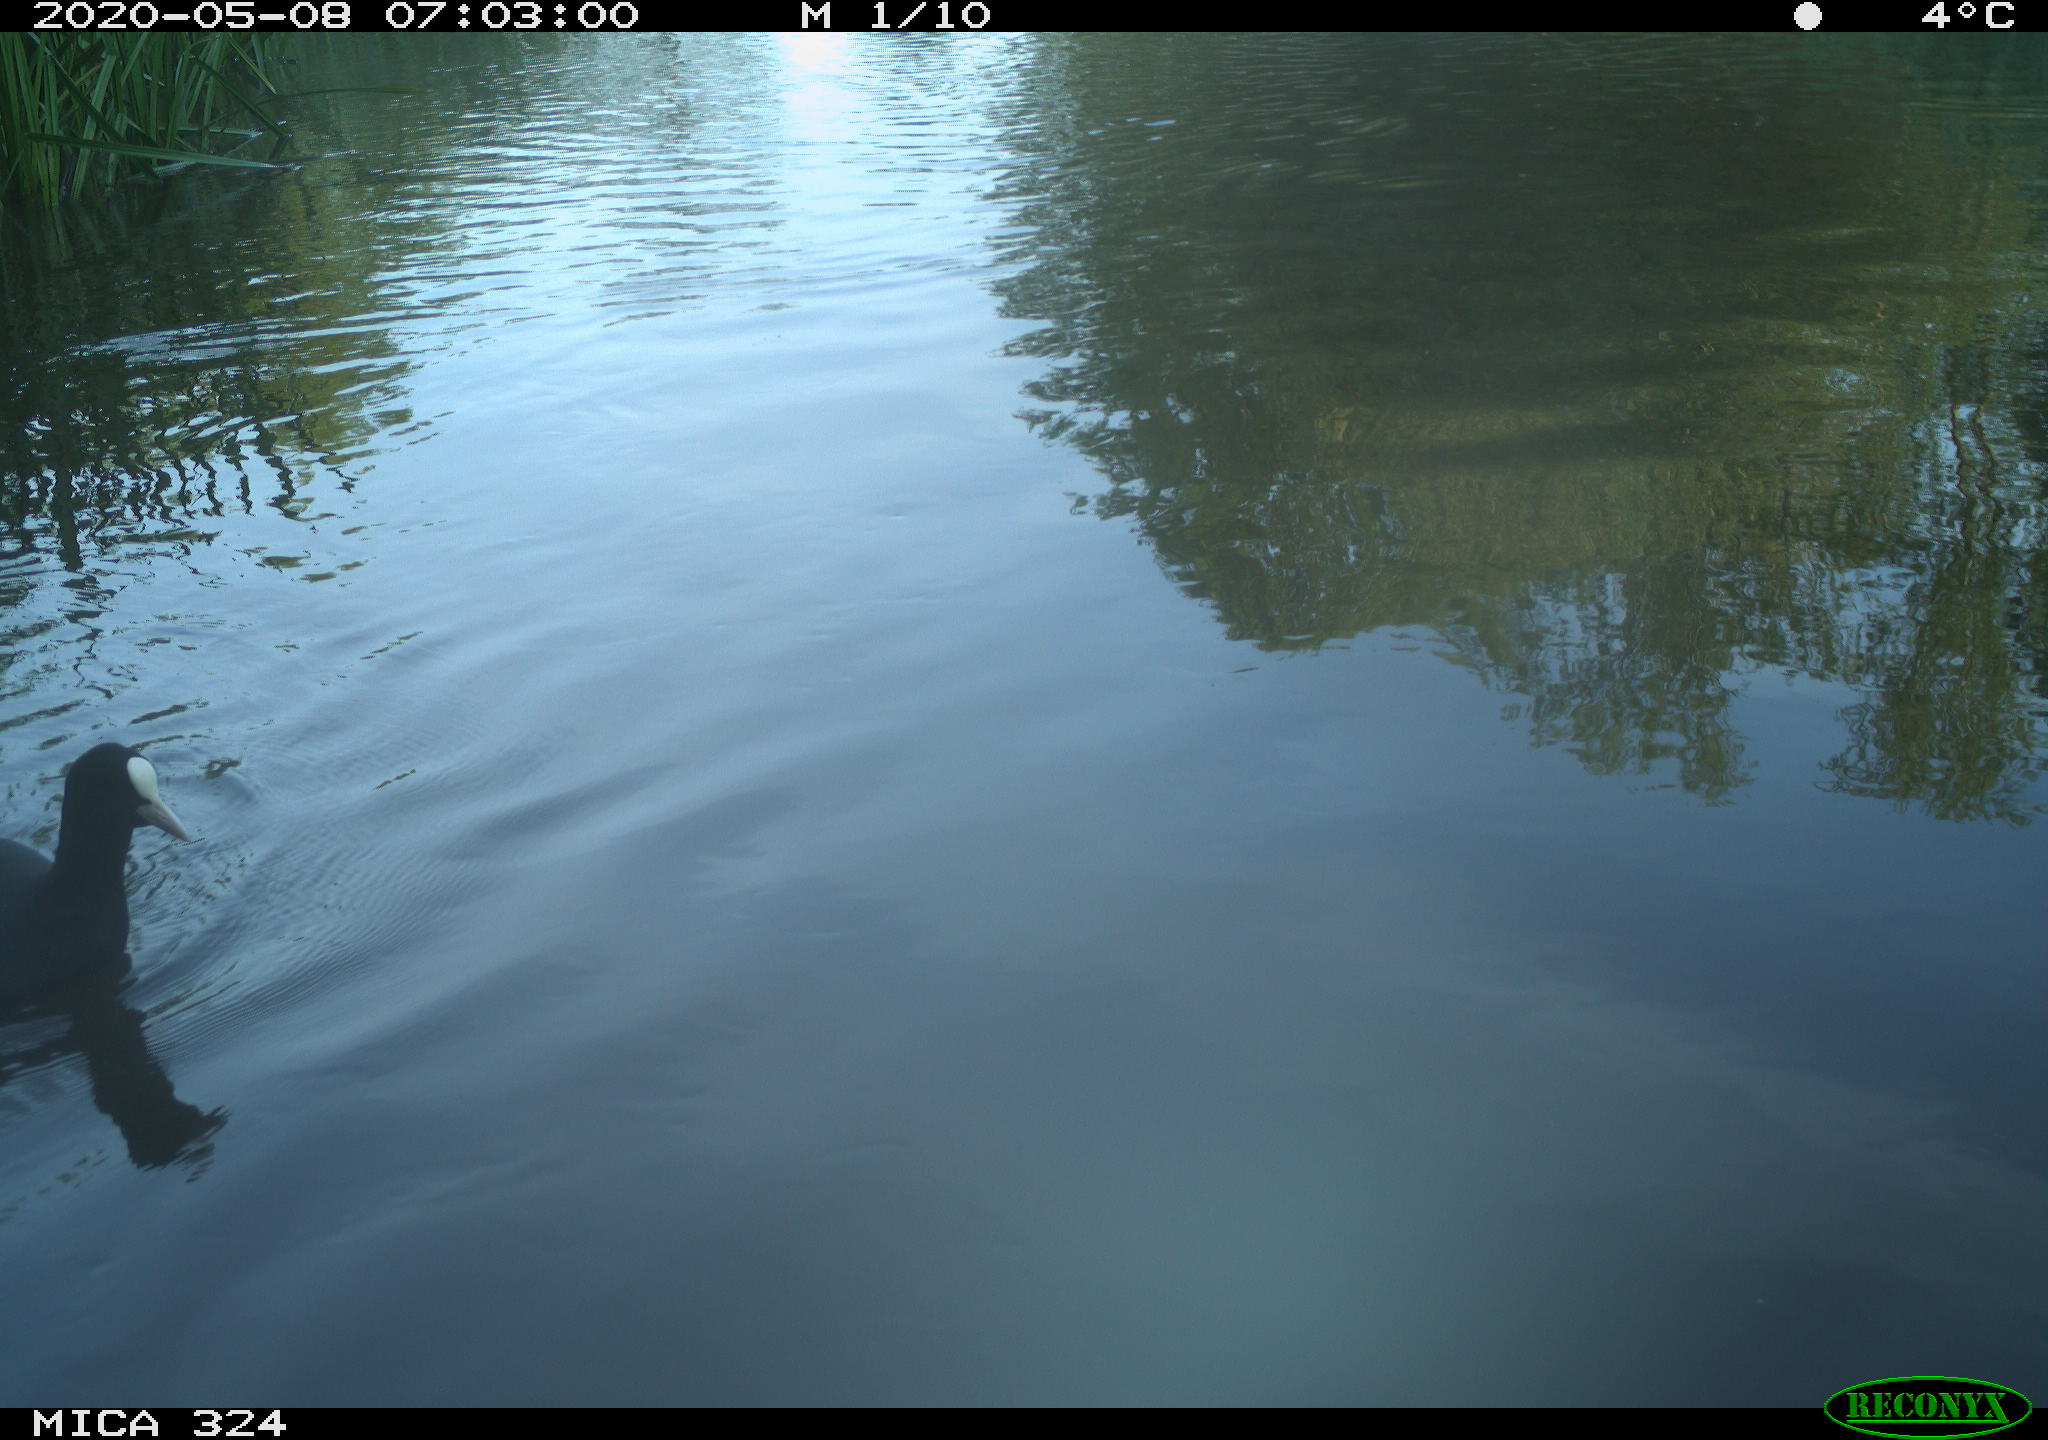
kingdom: Animalia
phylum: Chordata
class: Aves
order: Gruiformes
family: Rallidae
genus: Fulica
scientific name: Fulica atra
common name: Eurasian coot
